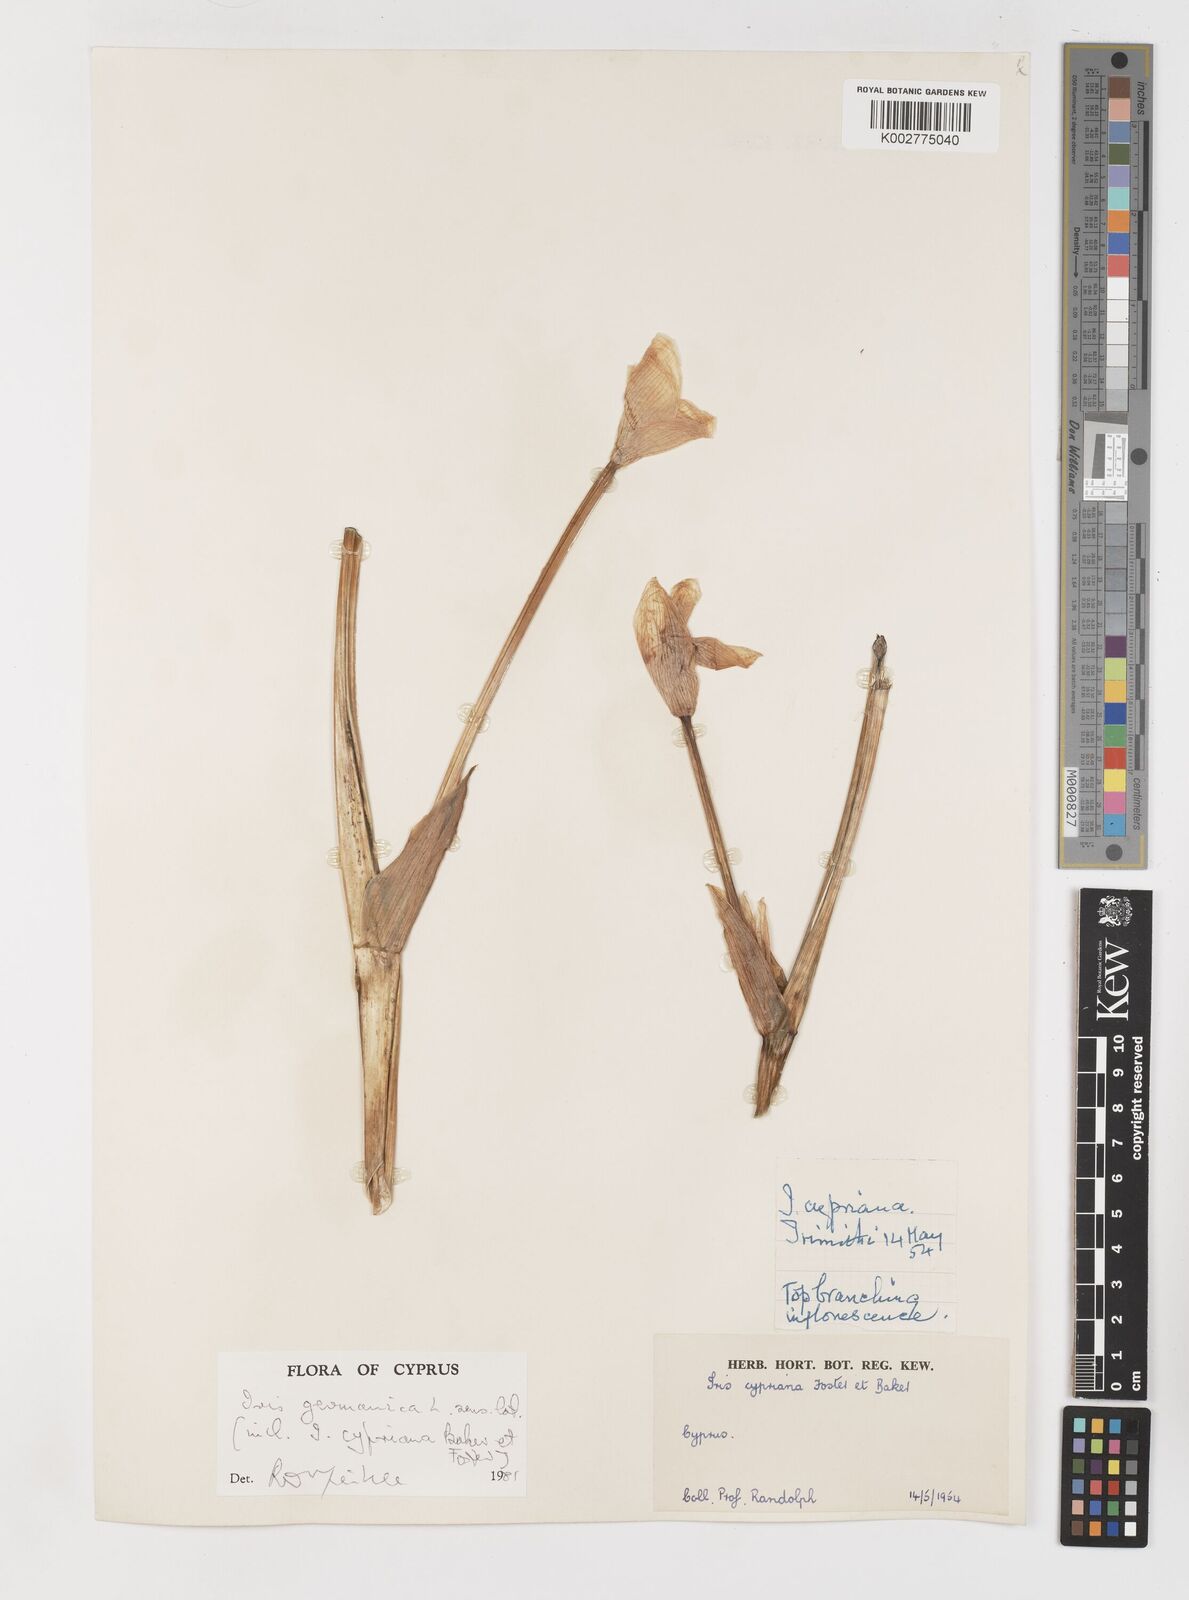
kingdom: Plantae
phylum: Tracheophyta
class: Liliopsida
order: Asparagales
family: Iridaceae
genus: Iris
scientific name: Iris germanica
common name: German iris
